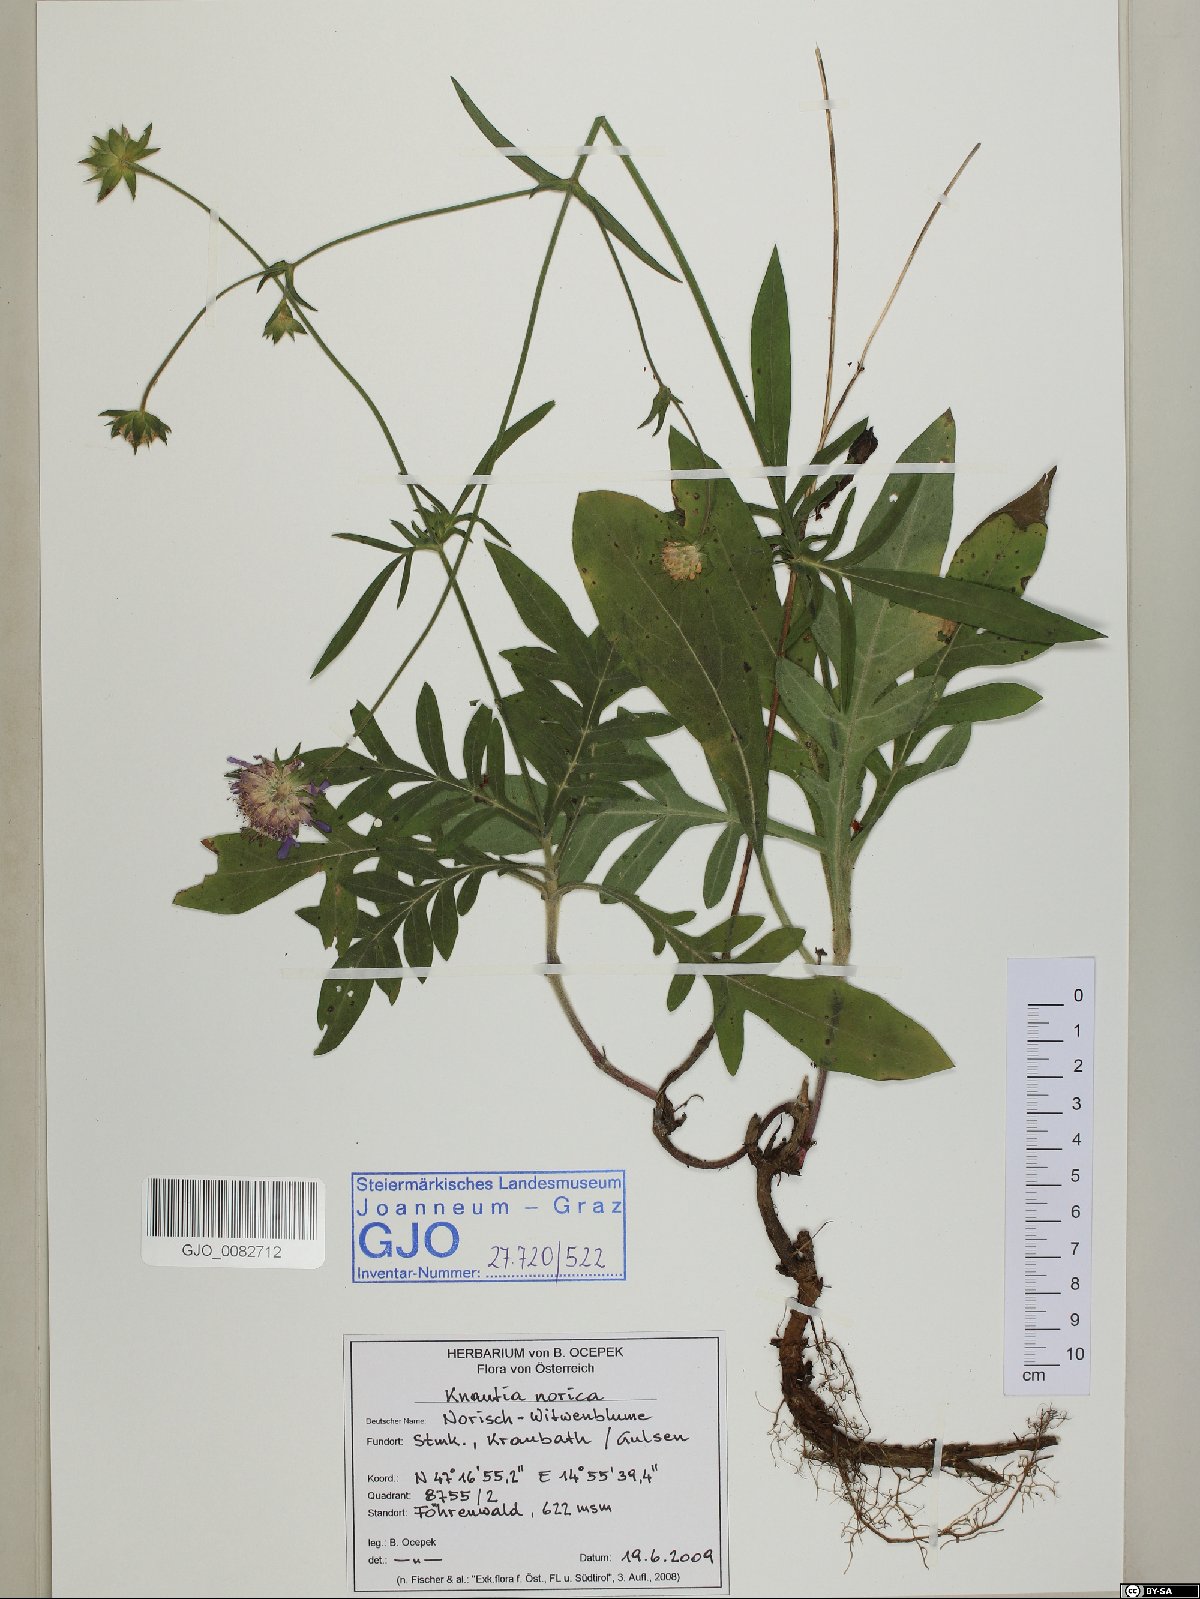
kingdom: Plantae
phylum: Tracheophyta
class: Magnoliopsida
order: Dipsacales
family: Caprifoliaceae
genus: Knautia
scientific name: Knautia norica
